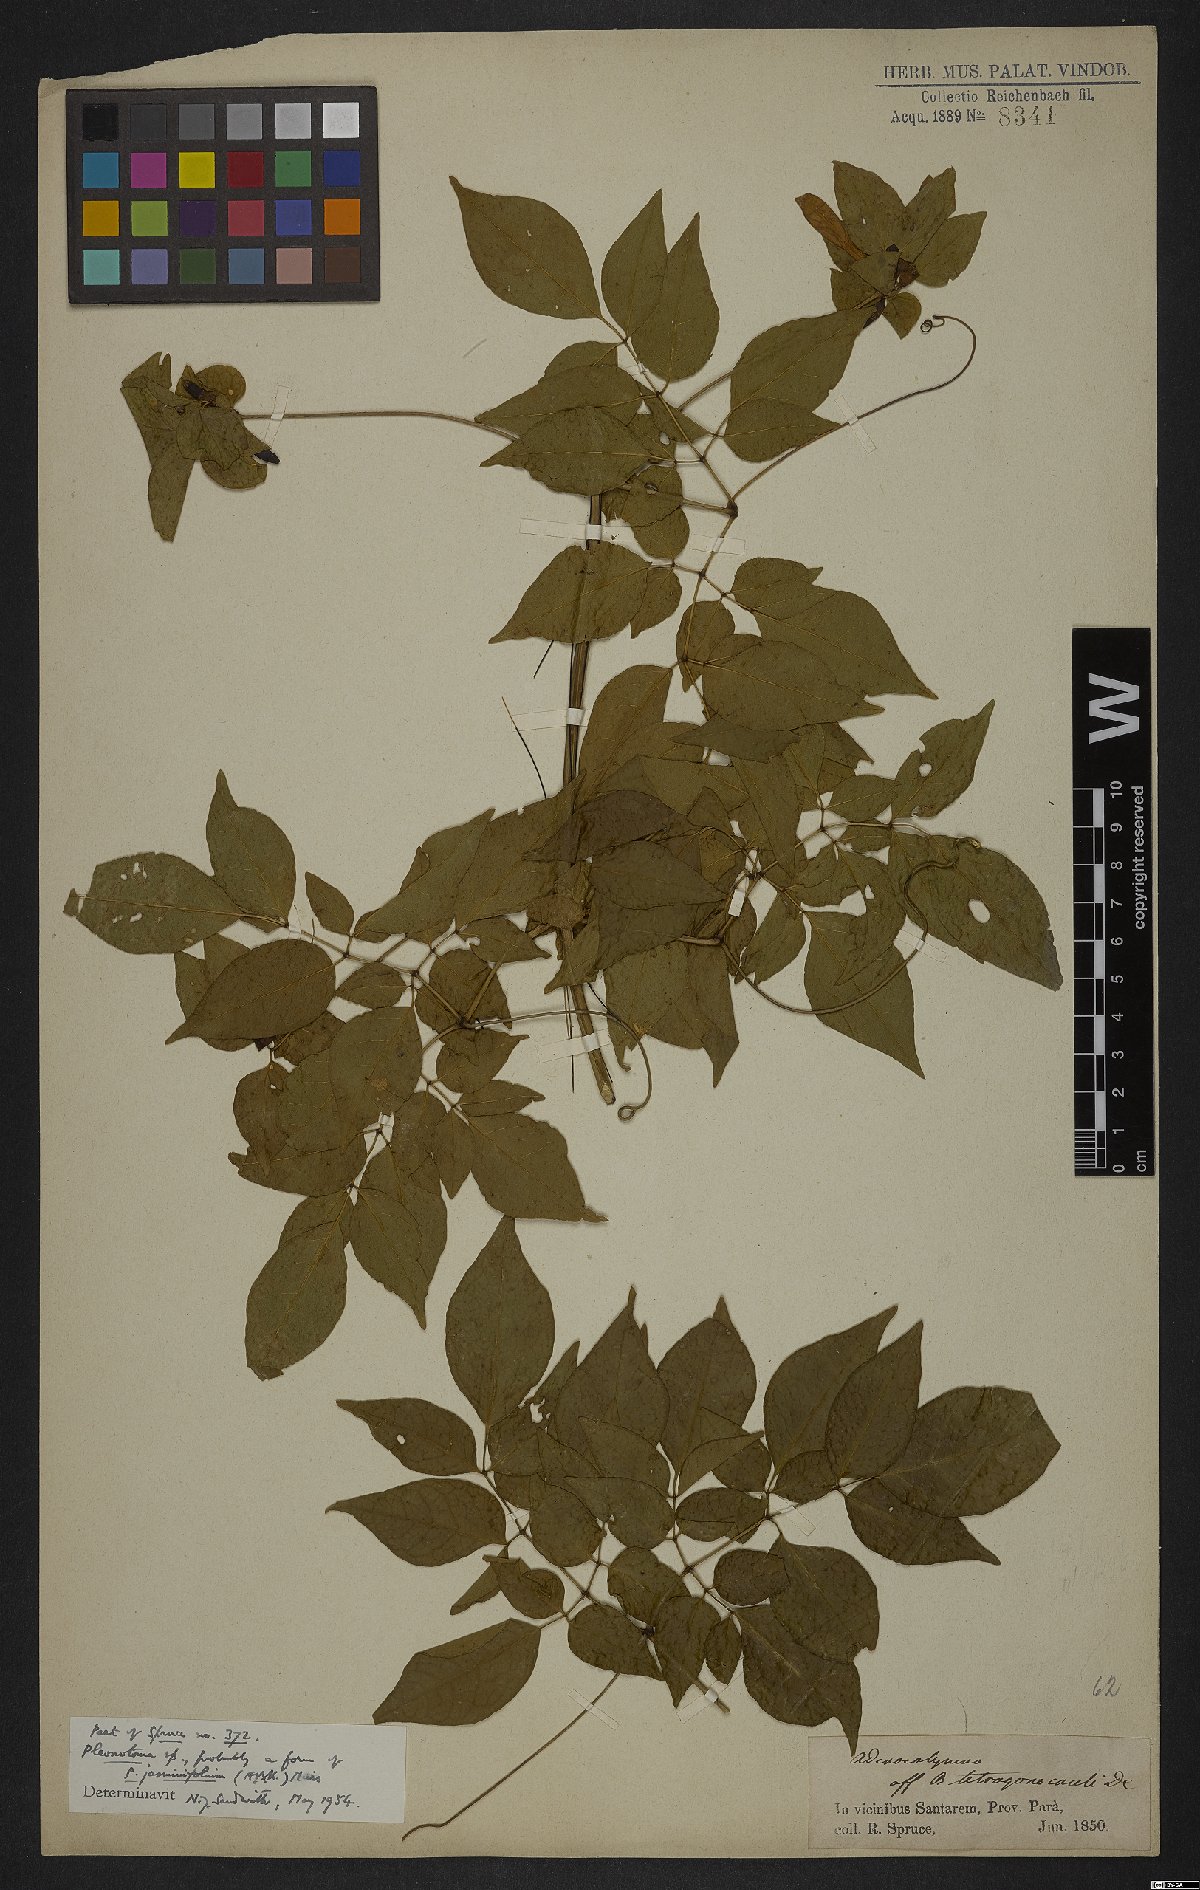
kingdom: Plantae
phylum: Tracheophyta
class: Magnoliopsida
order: Lamiales
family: Bignoniaceae
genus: Pleonotoma
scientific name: Pleonotoma
